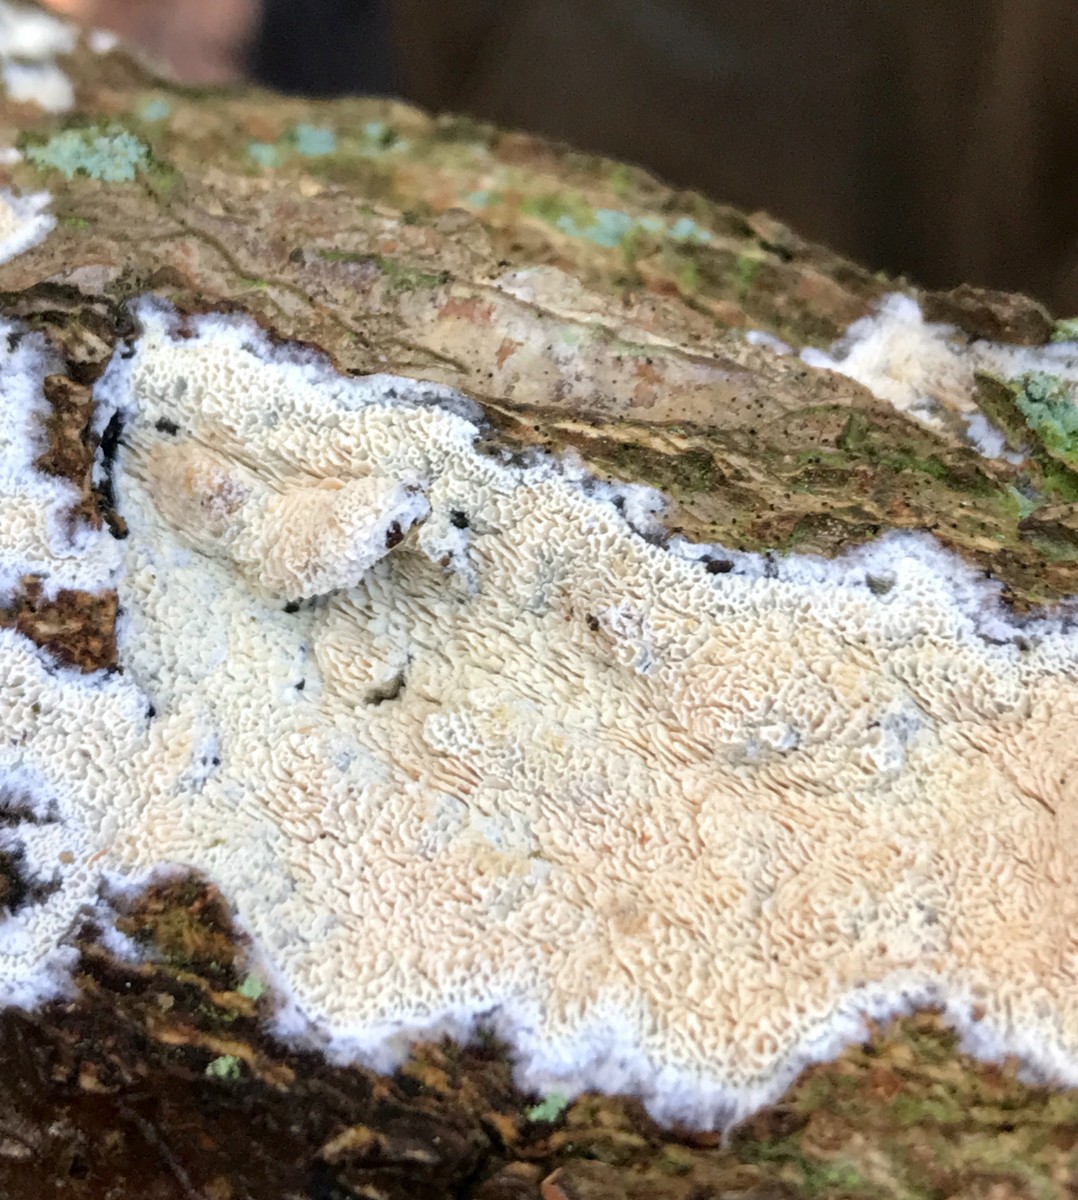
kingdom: Fungi
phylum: Basidiomycota
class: Agaricomycetes
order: Hymenochaetales
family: Schizoporaceae
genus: Xylodon
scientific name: Xylodon subtropicus
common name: labyrint-tandsvamp
